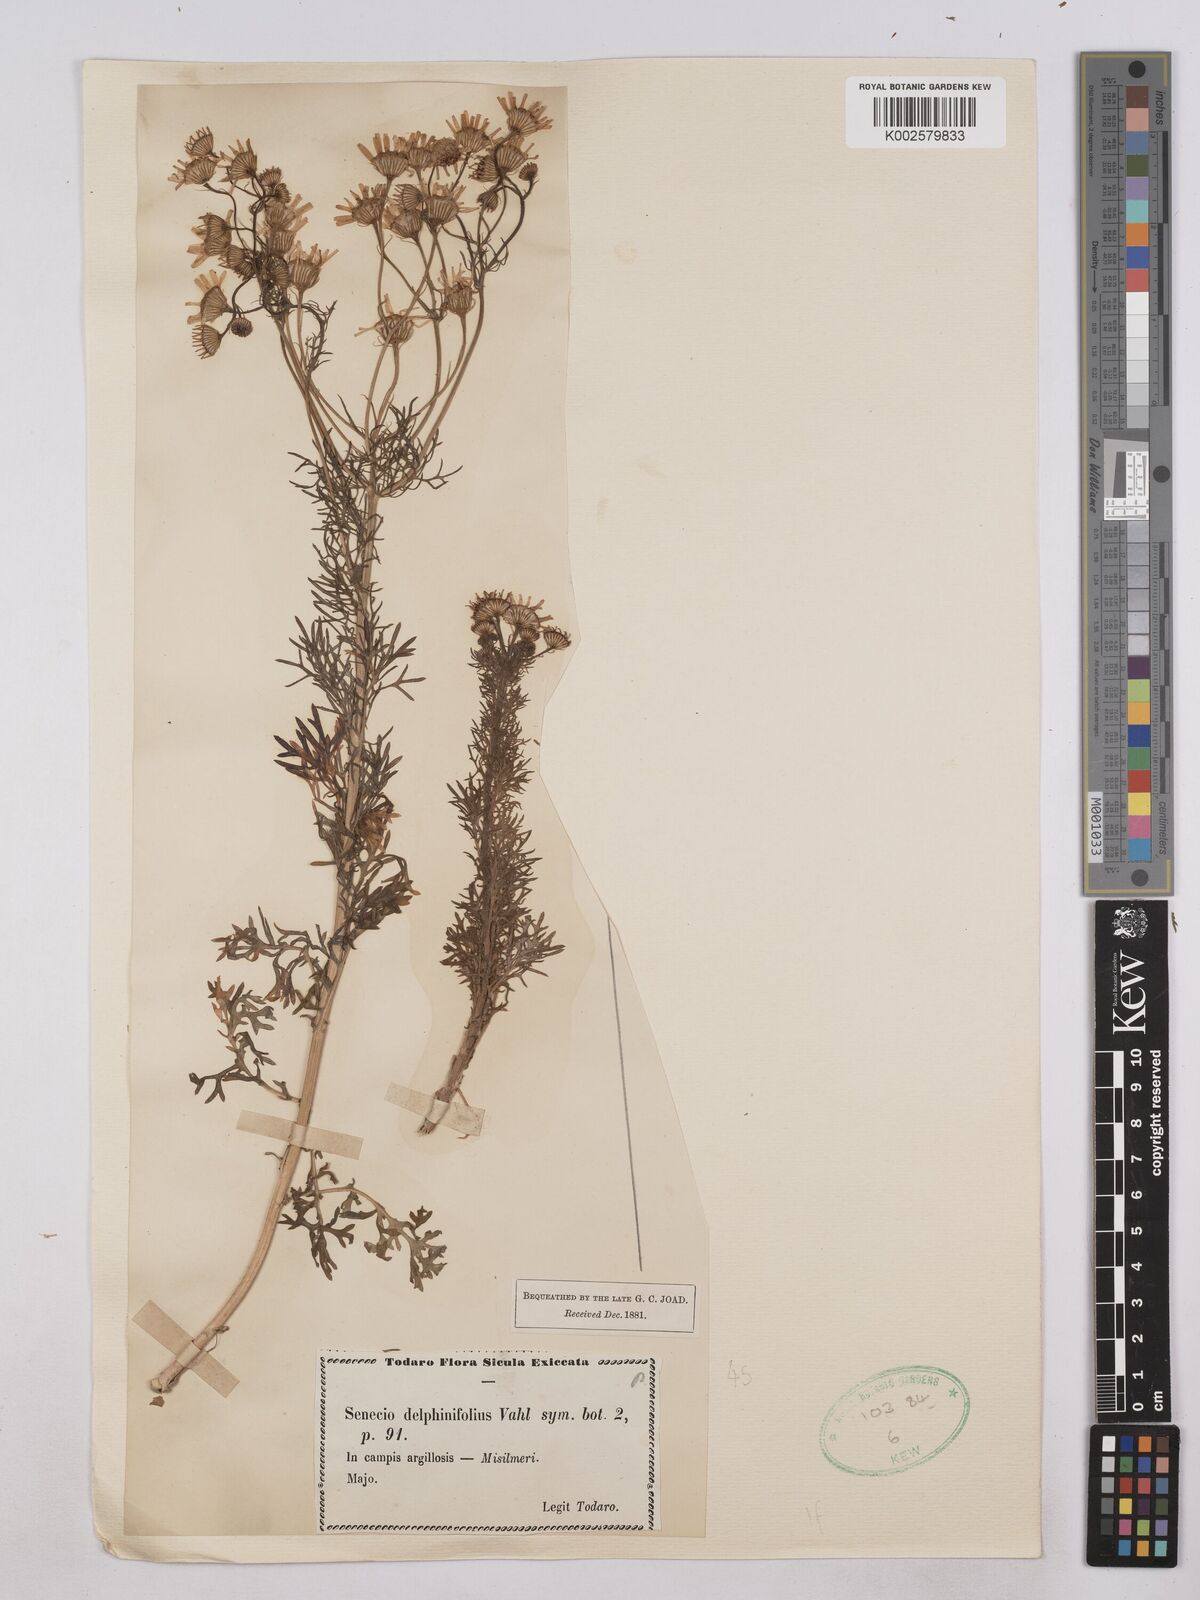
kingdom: Plantae
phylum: Tracheophyta
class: Magnoliopsida
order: Asterales
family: Asteraceae
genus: Jacobaea
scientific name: Jacobaea erucifolia
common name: Hoary ragwort
